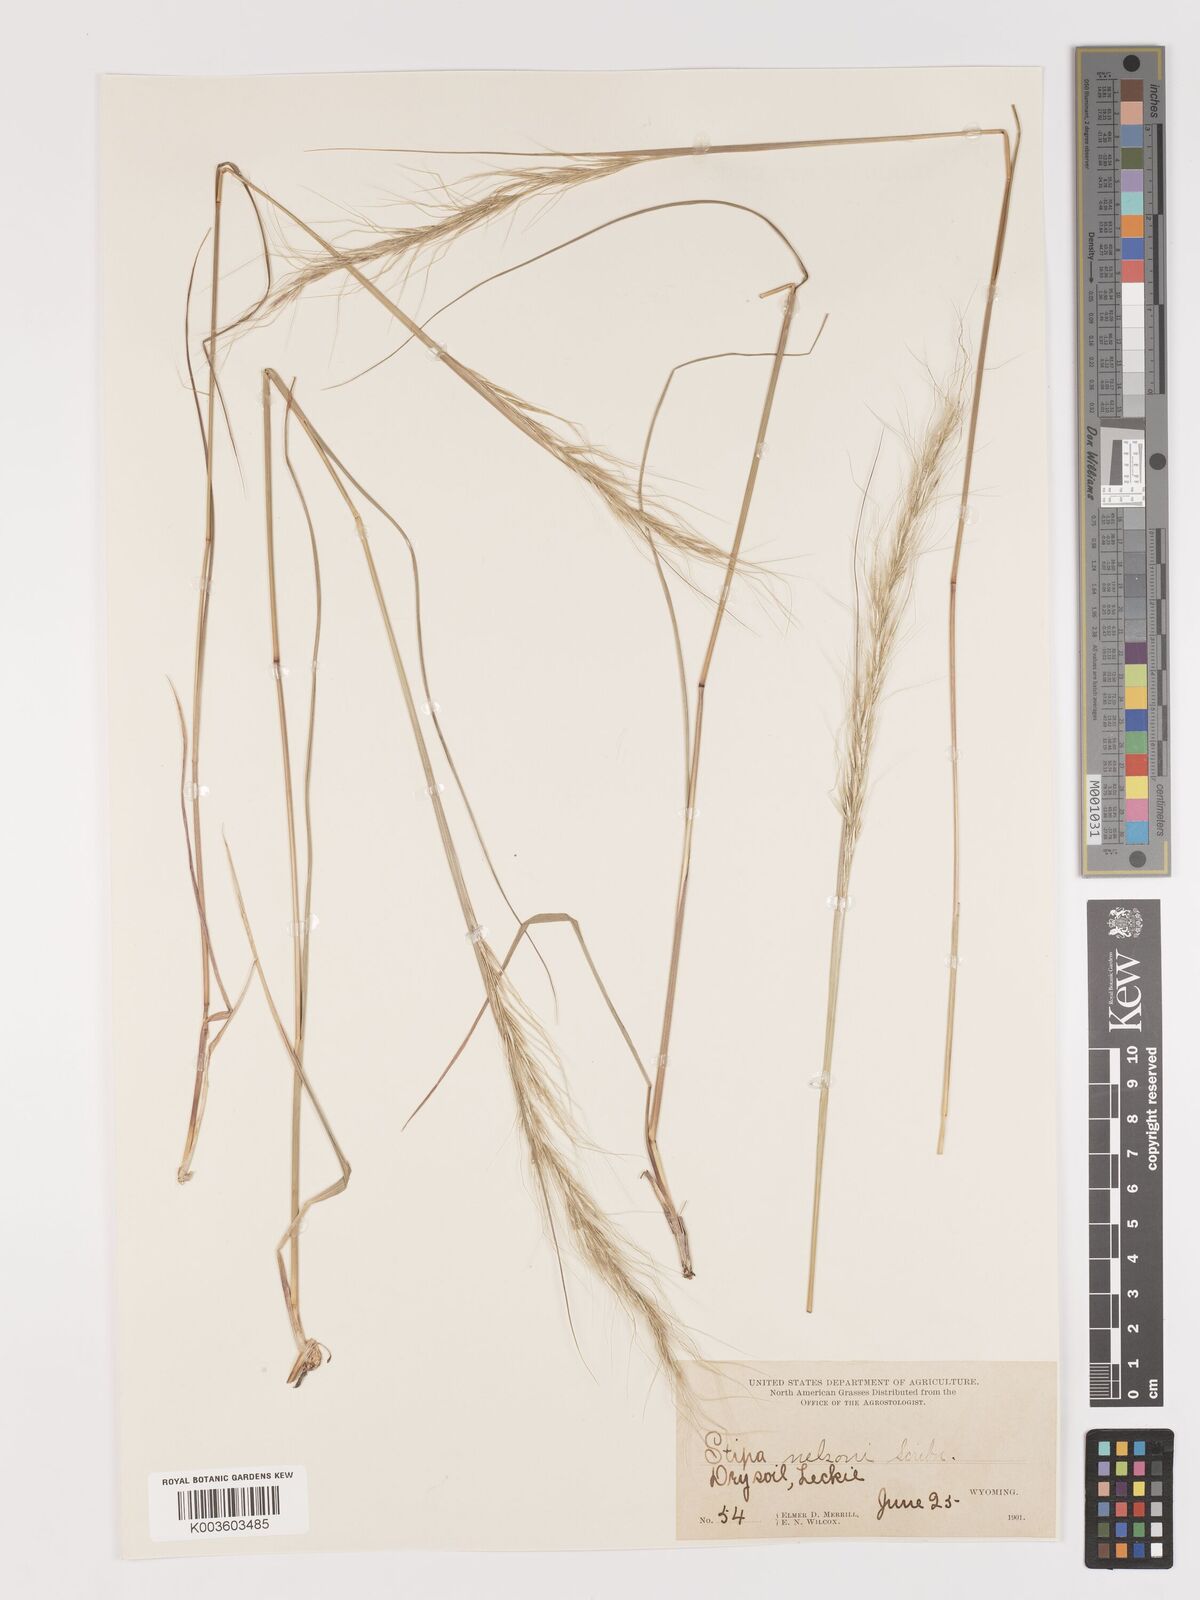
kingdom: Plantae
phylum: Tracheophyta
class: Liliopsida
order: Poales
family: Poaceae
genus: Eriocoma
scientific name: Eriocoma nelsonii
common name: Nelson's needlegrass
